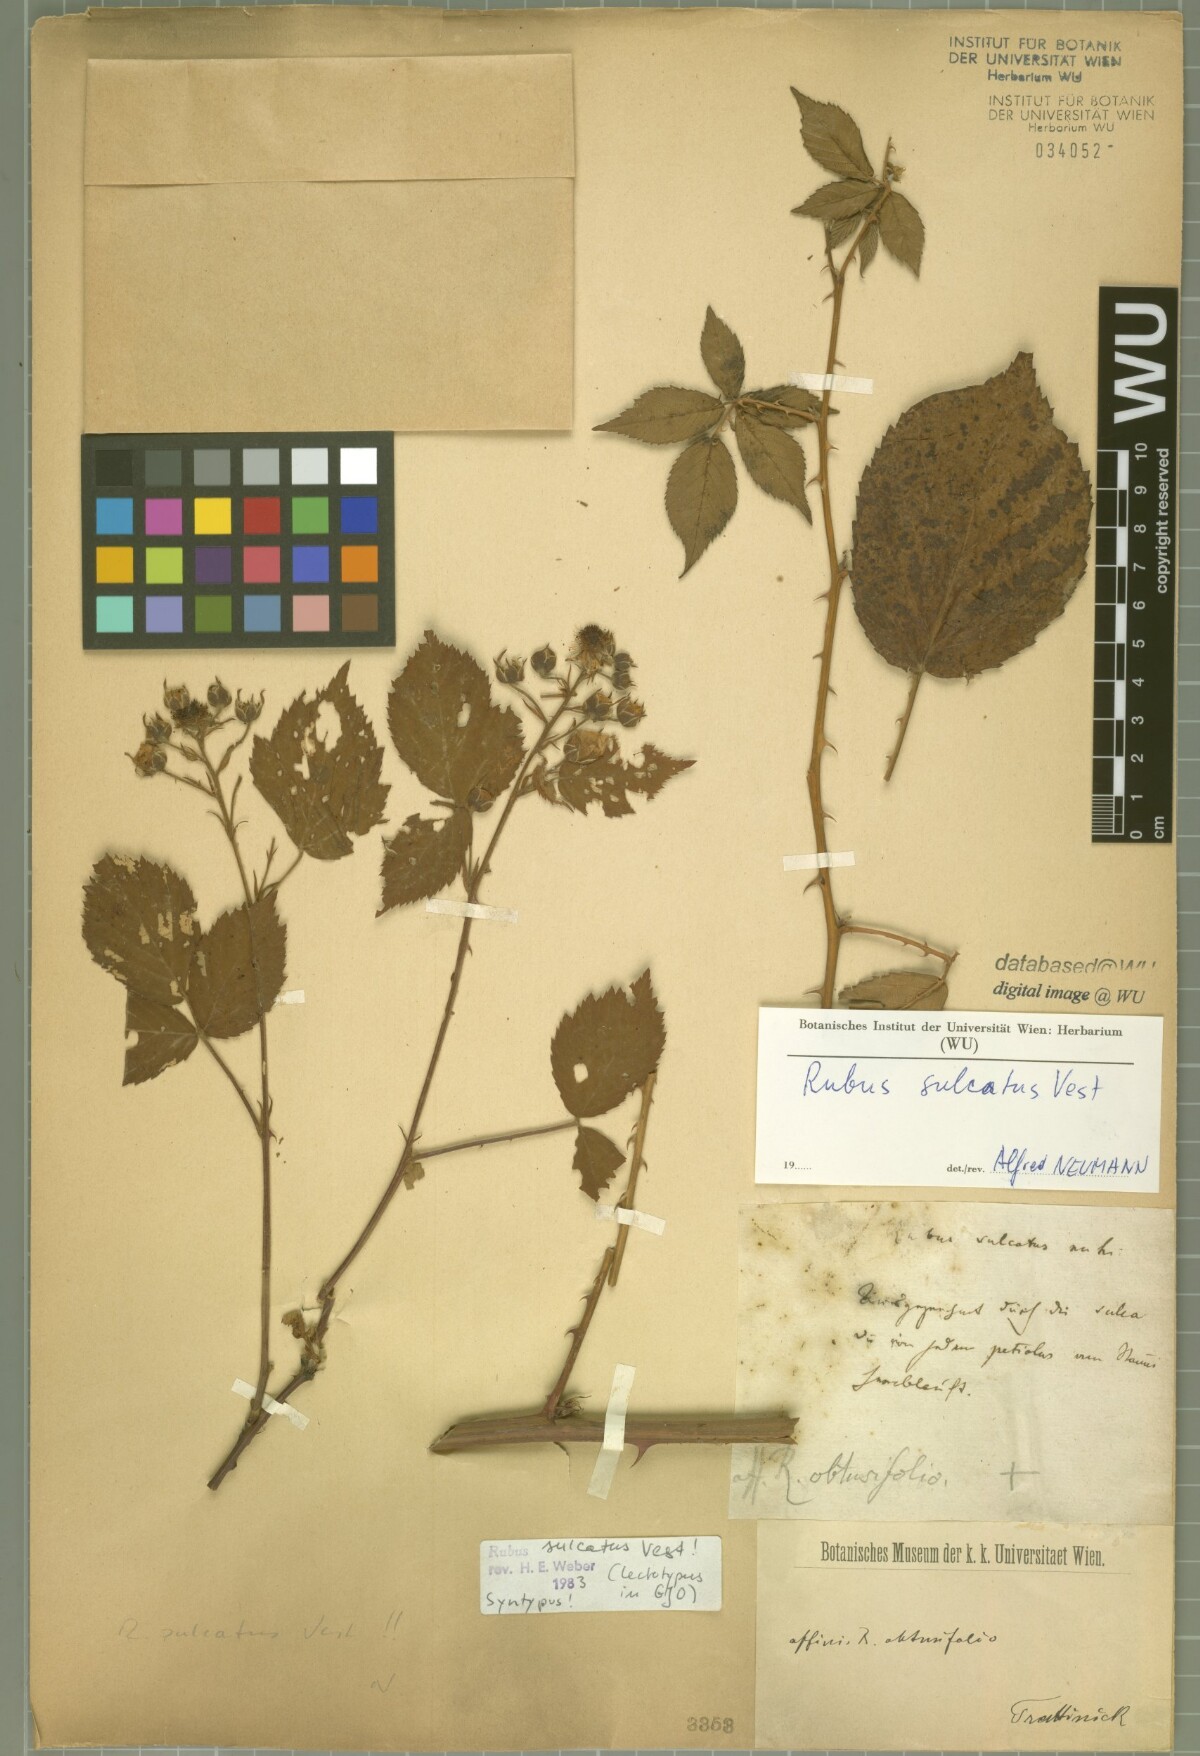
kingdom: Plantae
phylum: Tracheophyta
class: Magnoliopsida
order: Rosales
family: Rosaceae
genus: Rubus
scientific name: Rubus sulcatus
